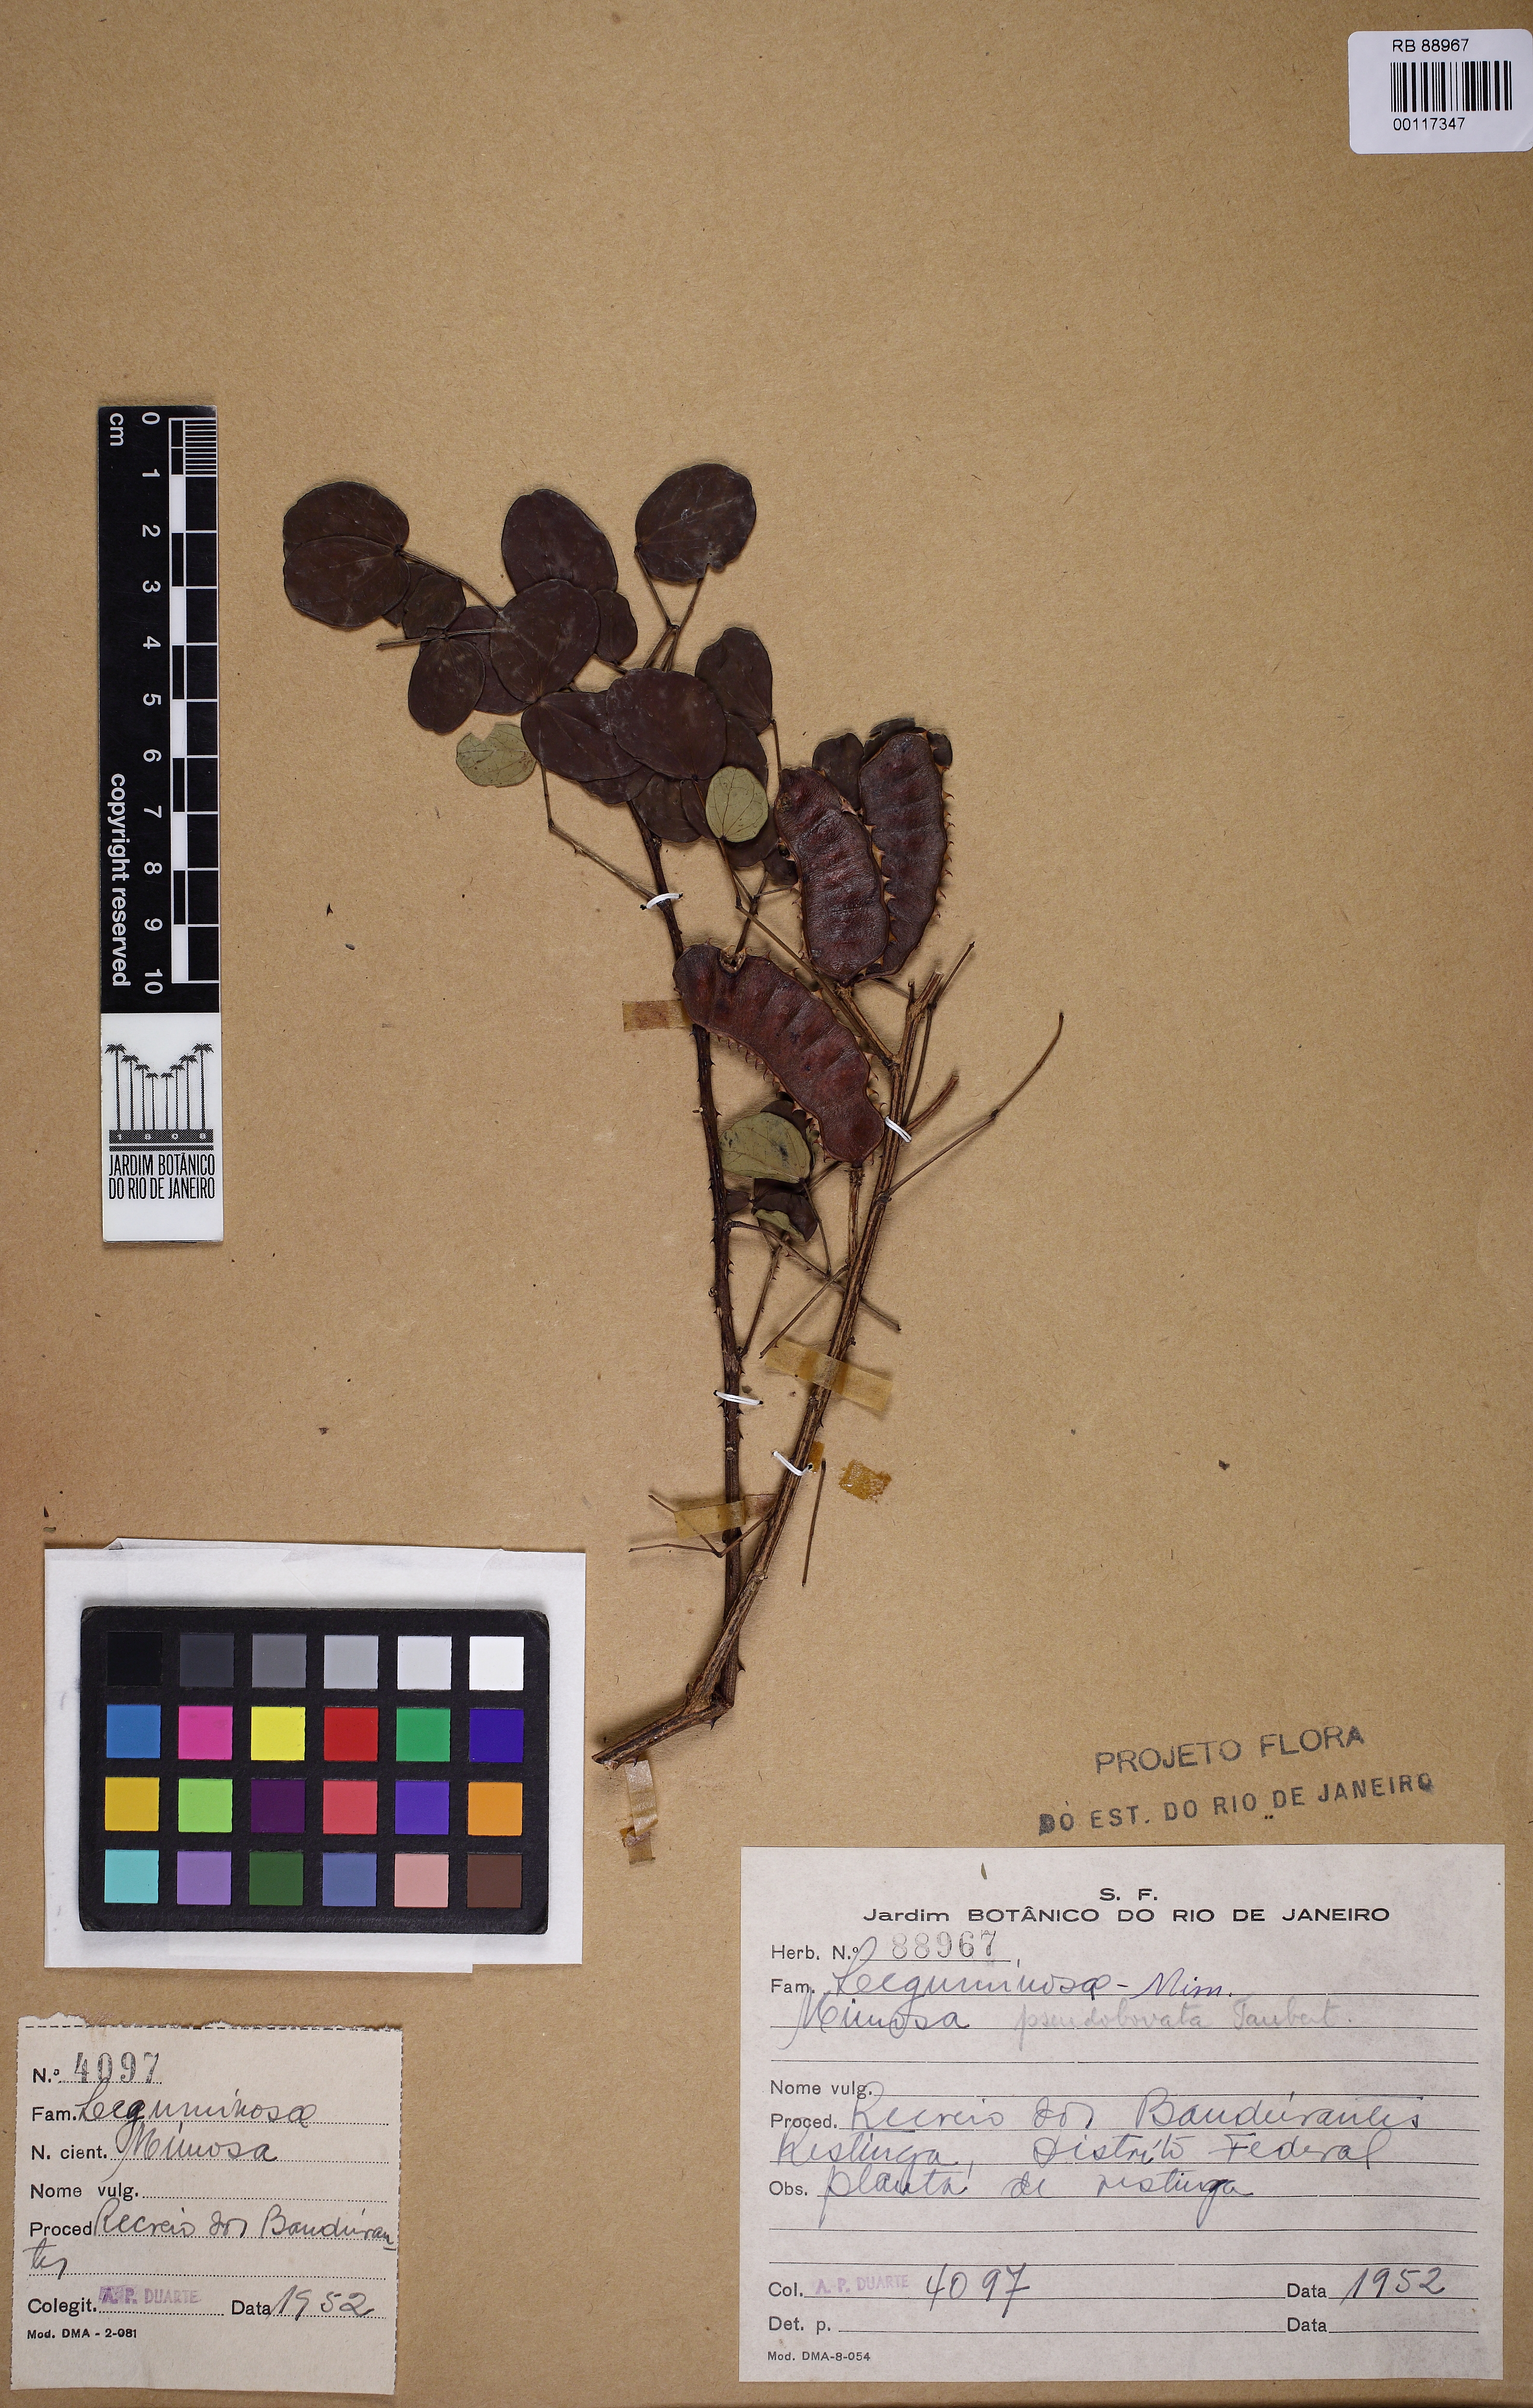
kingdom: Plantae
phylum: Tracheophyta
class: Magnoliopsida
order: Fabales
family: Fabaceae
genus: Mimosa
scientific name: Mimosa ceratonia
